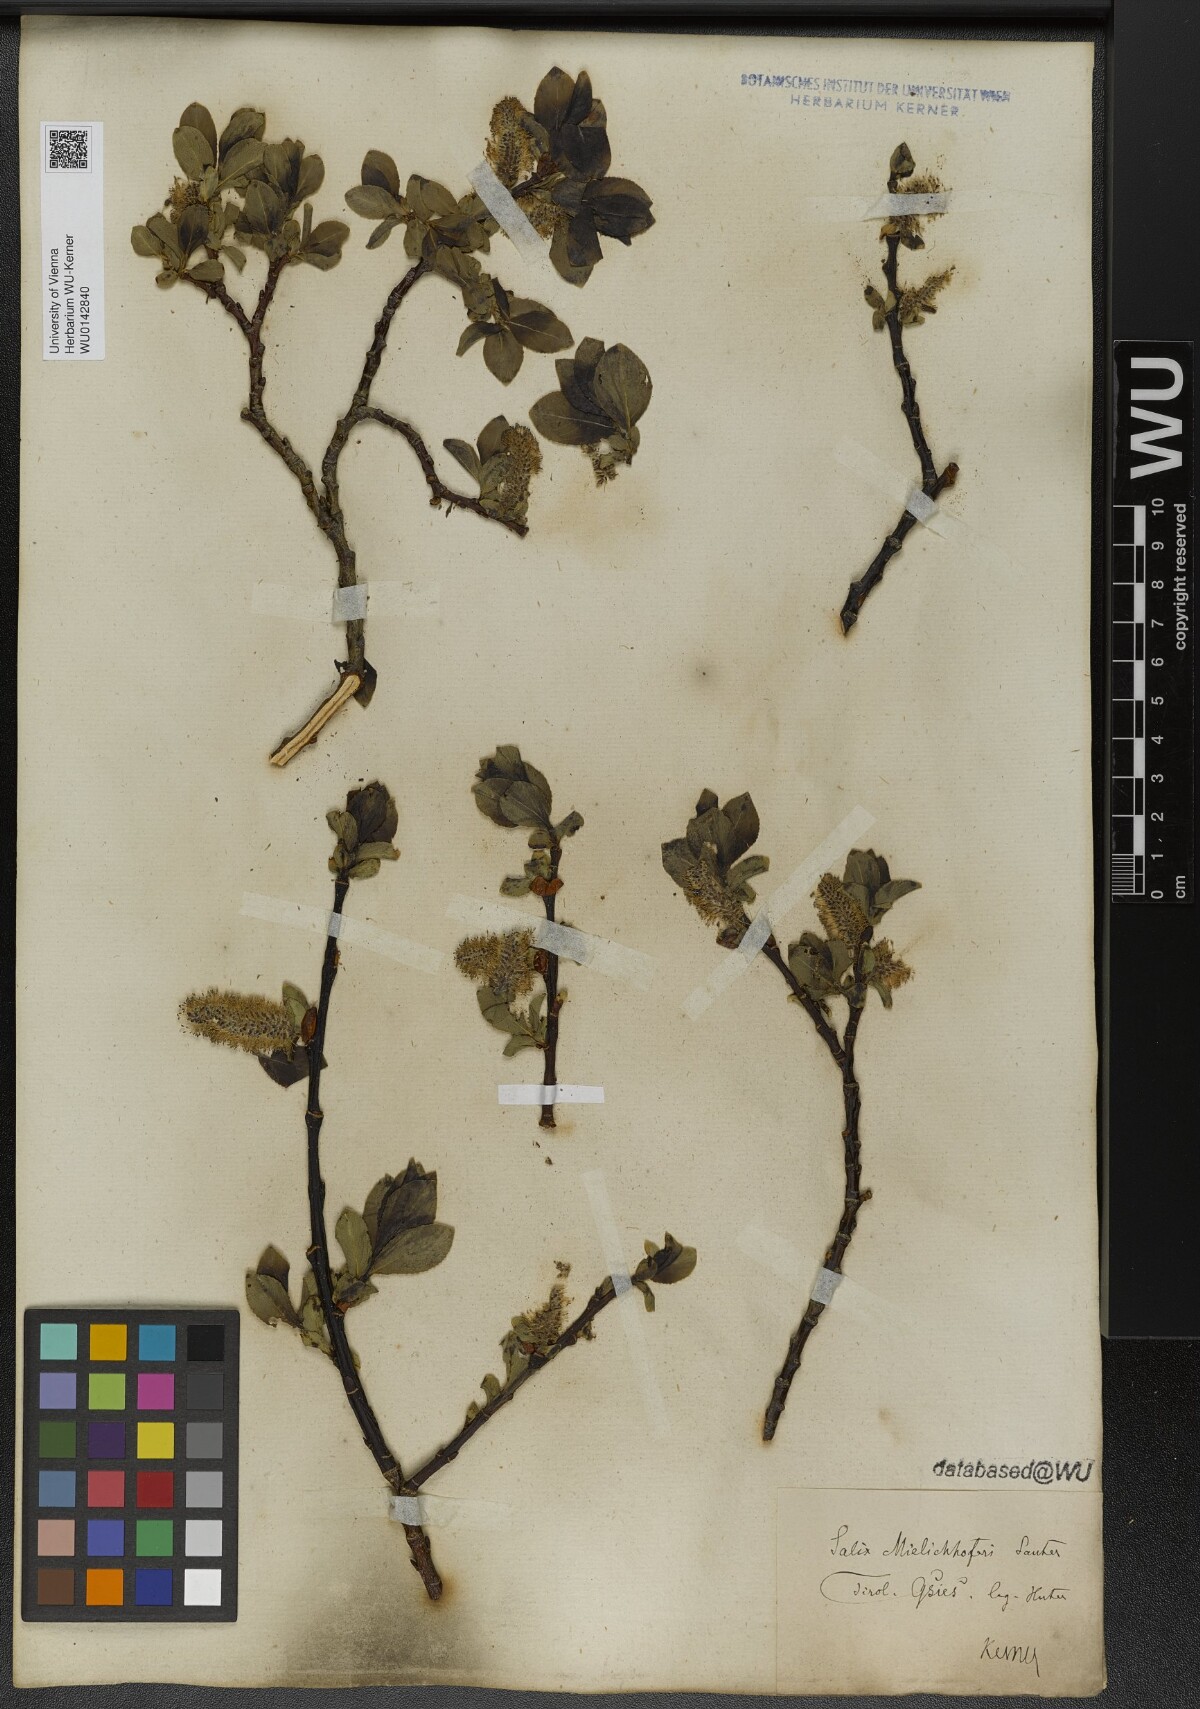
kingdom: Plantae
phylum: Tracheophyta
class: Magnoliopsida
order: Malpighiales
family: Salicaceae
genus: Salix
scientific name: Salix mielichhoferi
